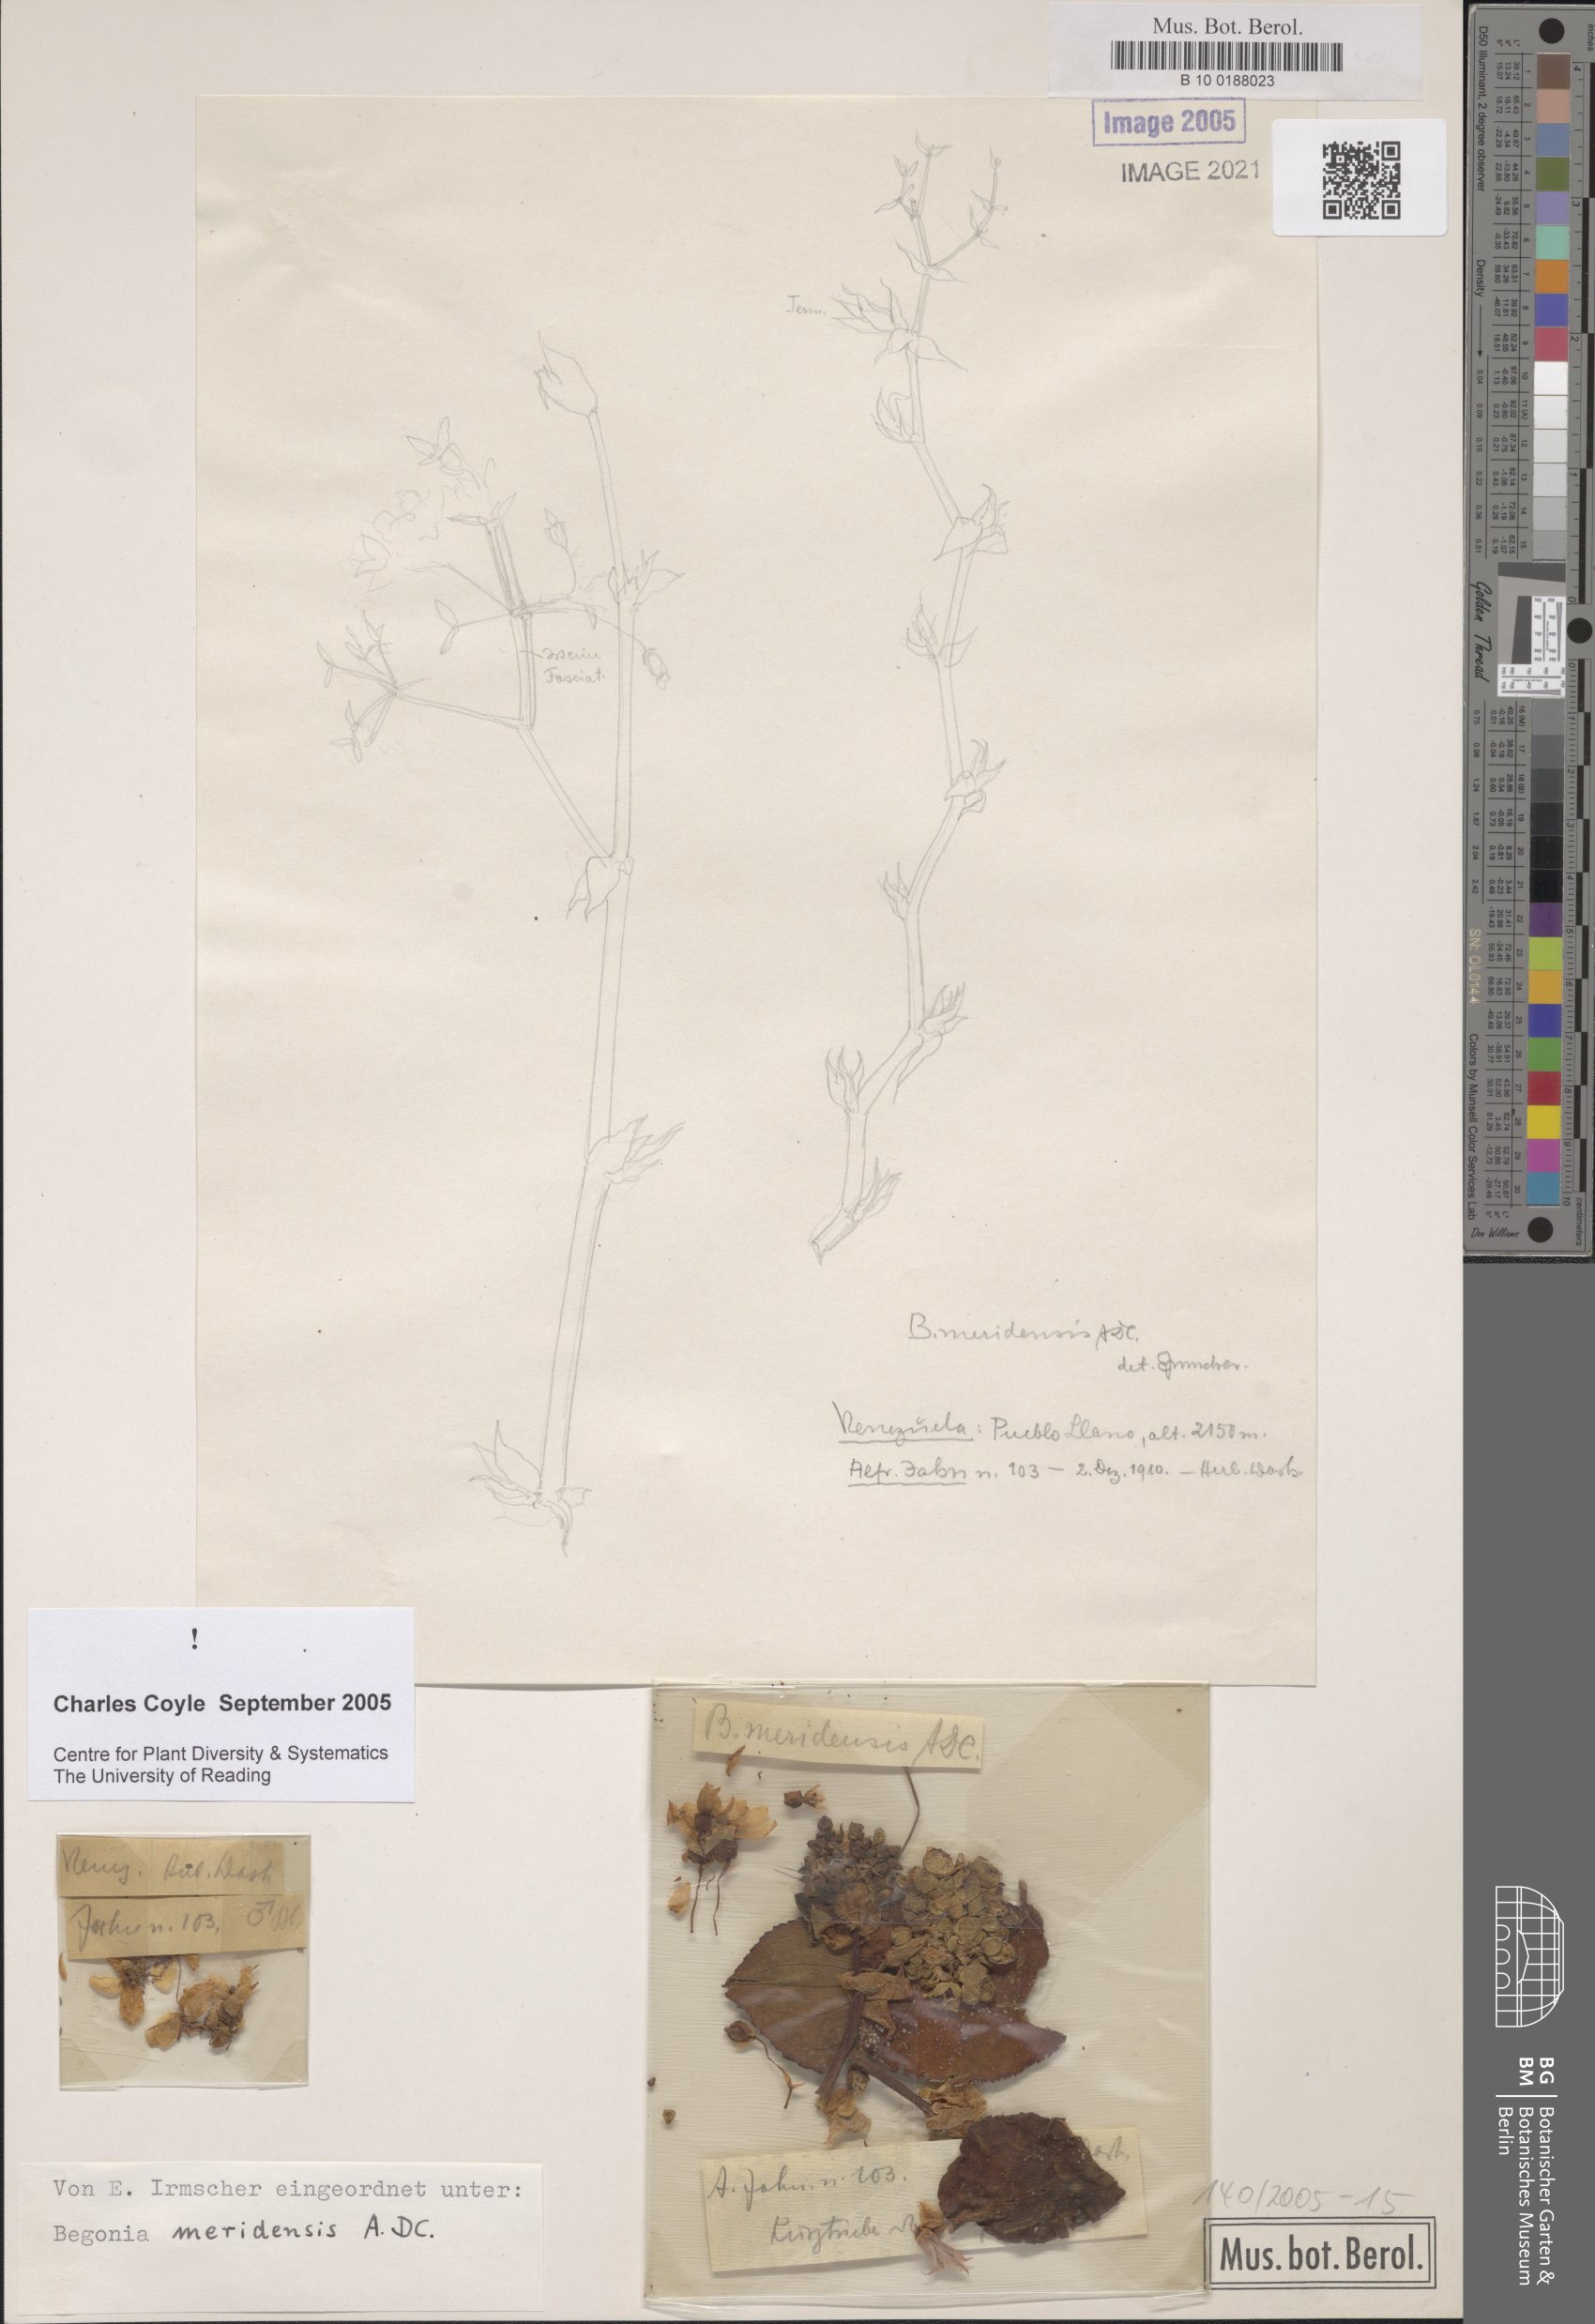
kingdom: Plantae
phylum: Tracheophyta
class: Magnoliopsida
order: Cucurbitales
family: Begoniaceae
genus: Begonia
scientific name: Begonia meridensis
